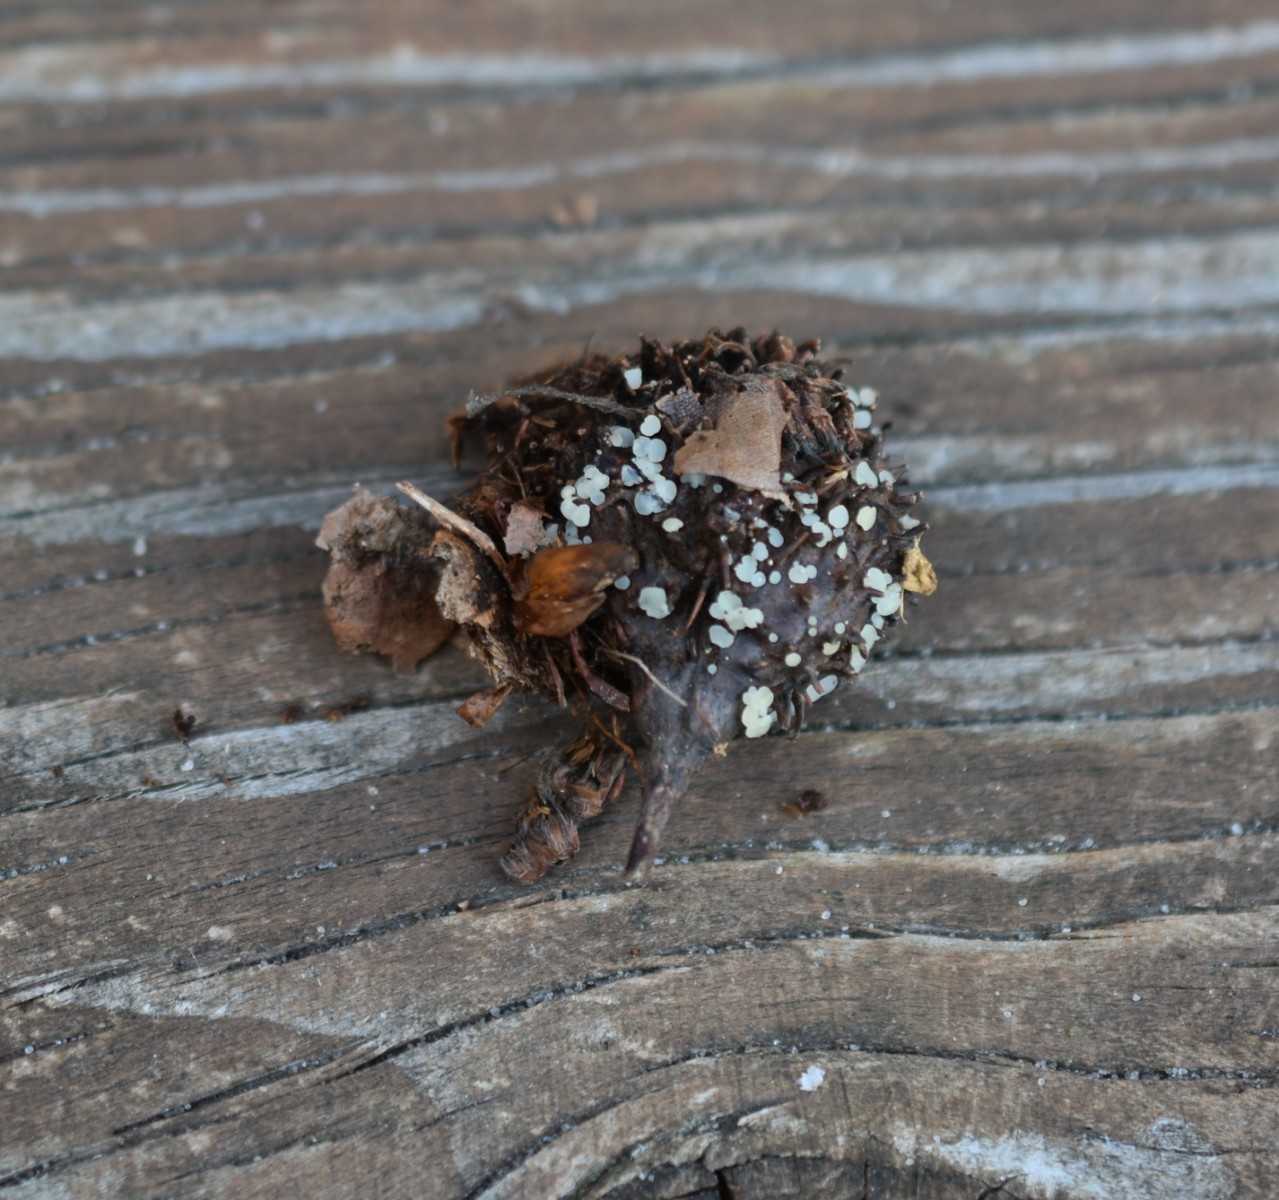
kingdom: Fungi
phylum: Ascomycota
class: Leotiomycetes
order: Helotiales
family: Helotiaceae
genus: Hymenoscyphus
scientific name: Hymenoscyphus fagineus
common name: vellugtende stilkskive
